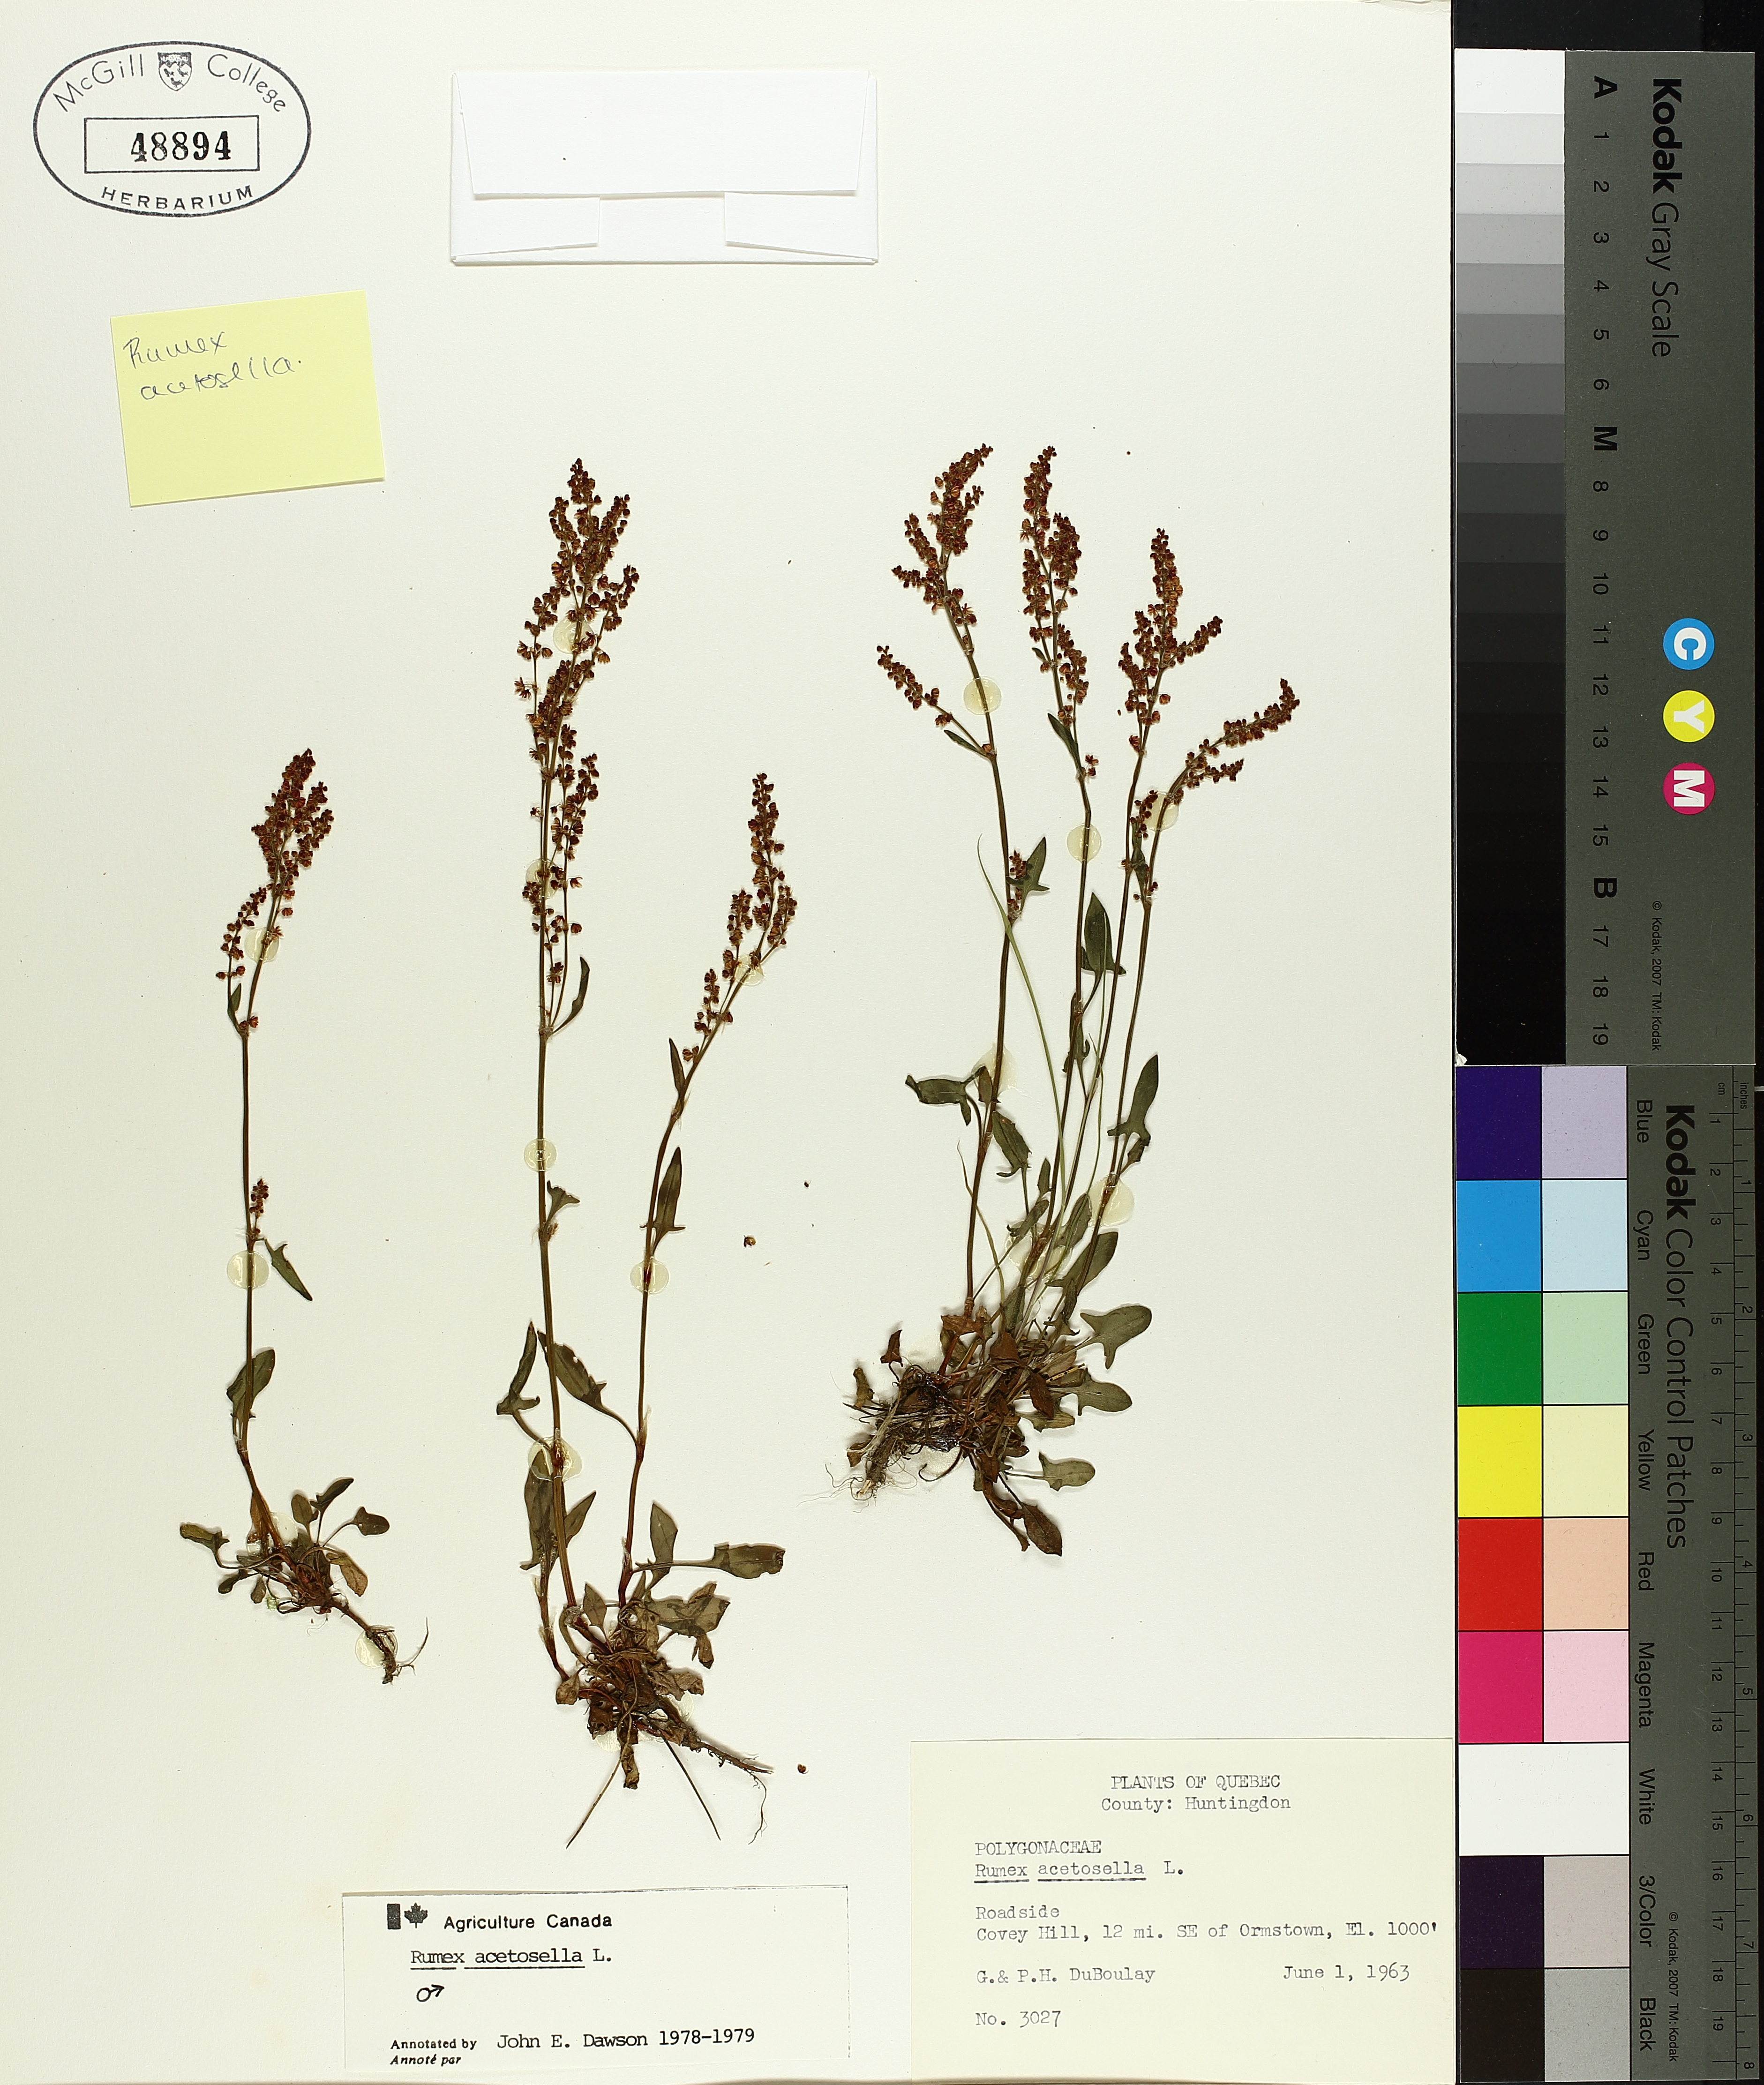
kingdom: Plantae
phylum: Tracheophyta
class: Magnoliopsida
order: Caryophyllales
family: Polygonaceae
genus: Rumex
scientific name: Rumex acetosella
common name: Common sheep sorrel
